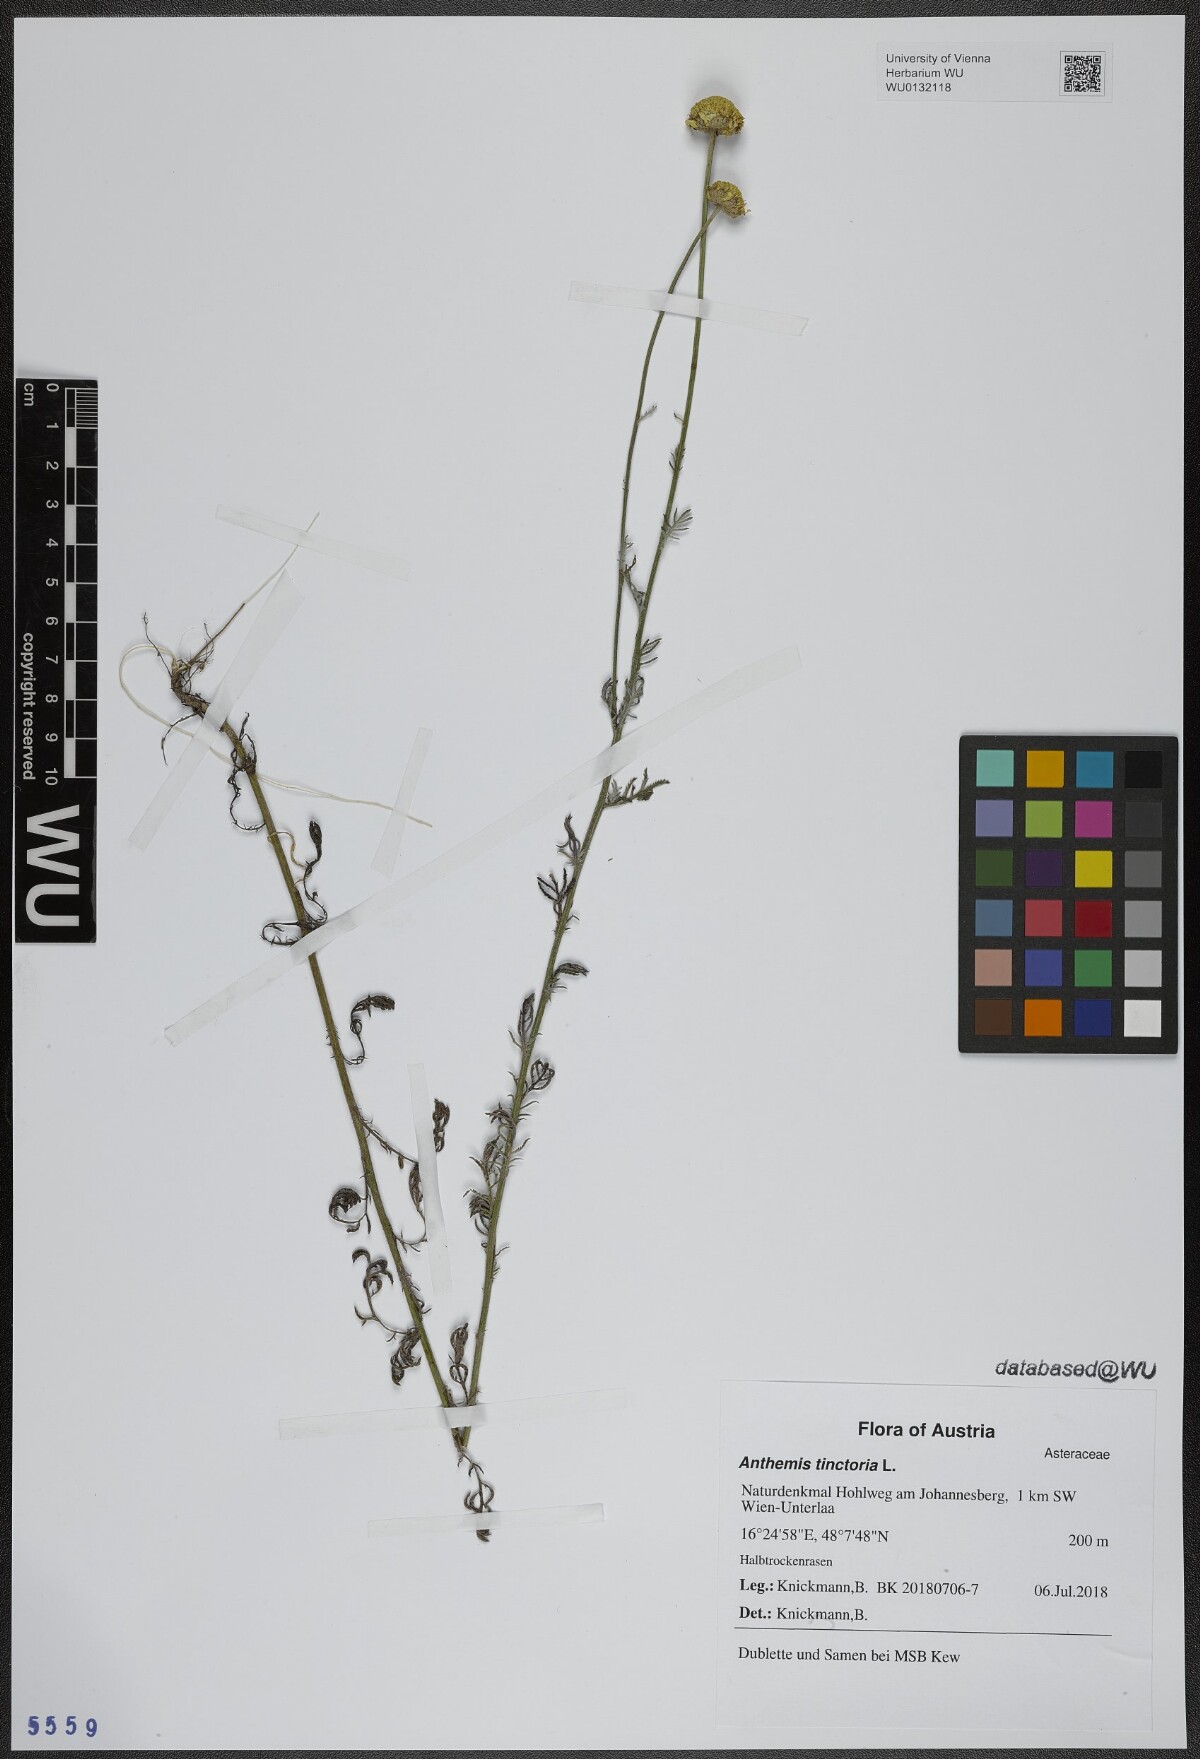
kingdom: Plantae
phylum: Tracheophyta
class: Magnoliopsida
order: Asterales
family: Asteraceae
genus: Cota
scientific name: Cota tinctoria
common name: Golden chamomile
